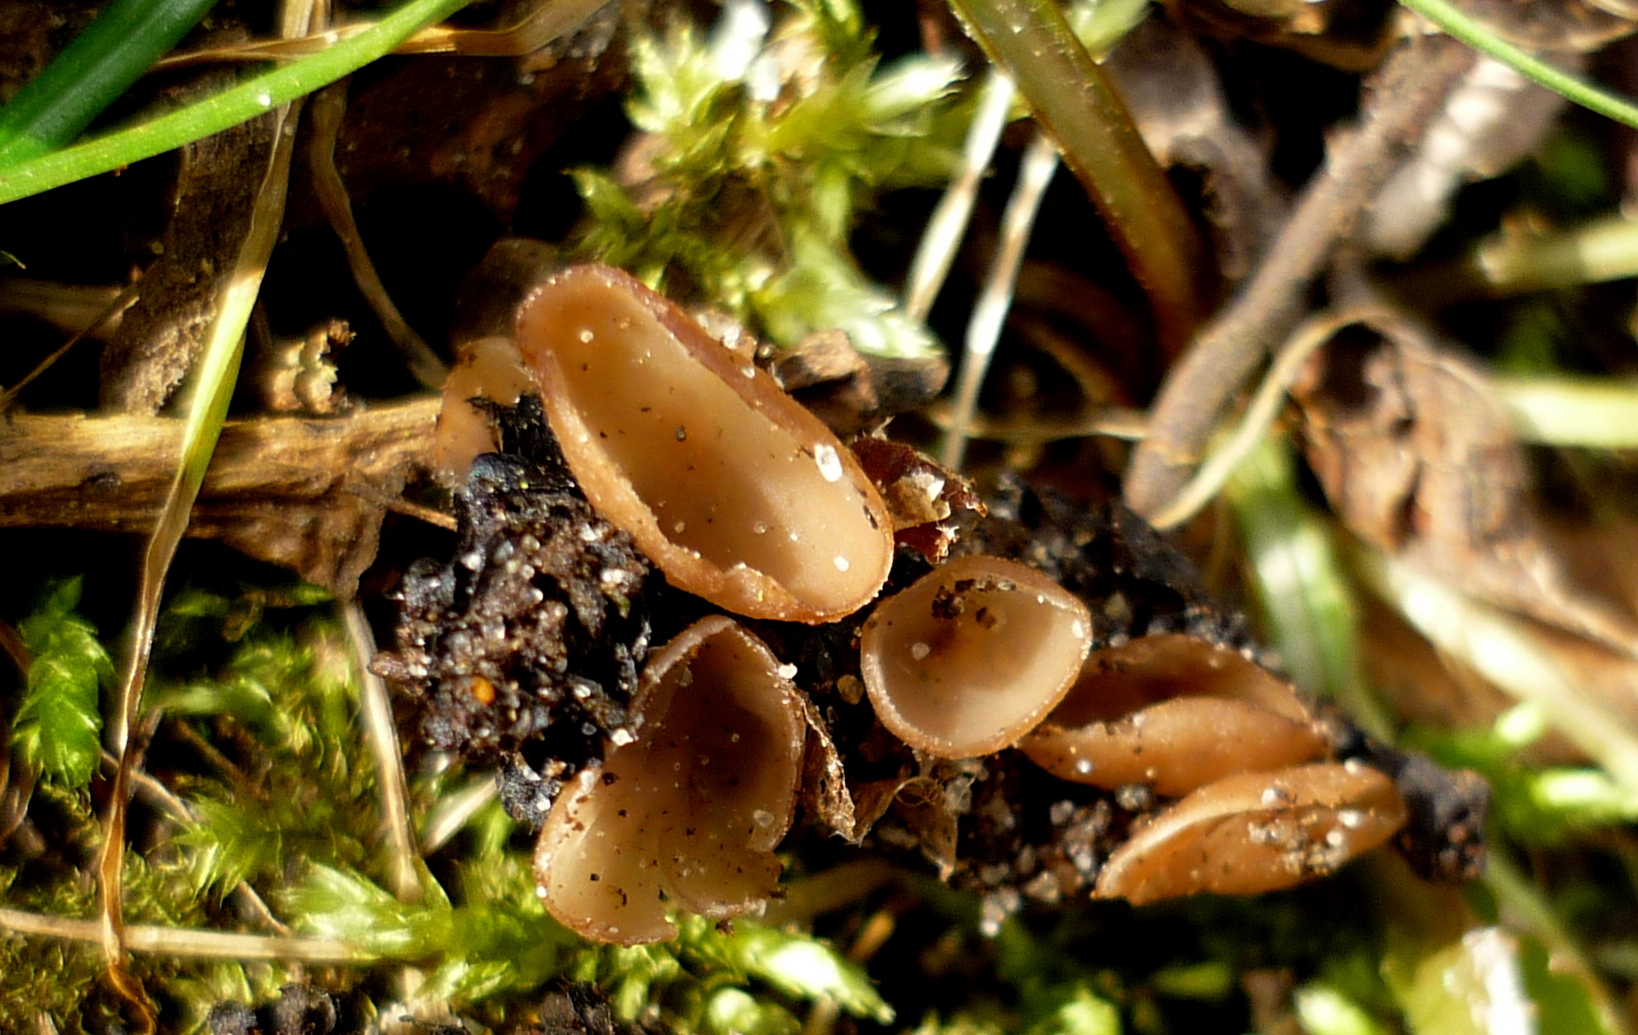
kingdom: Fungi
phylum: Ascomycota
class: Leotiomycetes
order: Helotiales
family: Sclerotiniaceae
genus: Ciboria
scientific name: Ciboria caucus
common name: rakle-knoldskive
